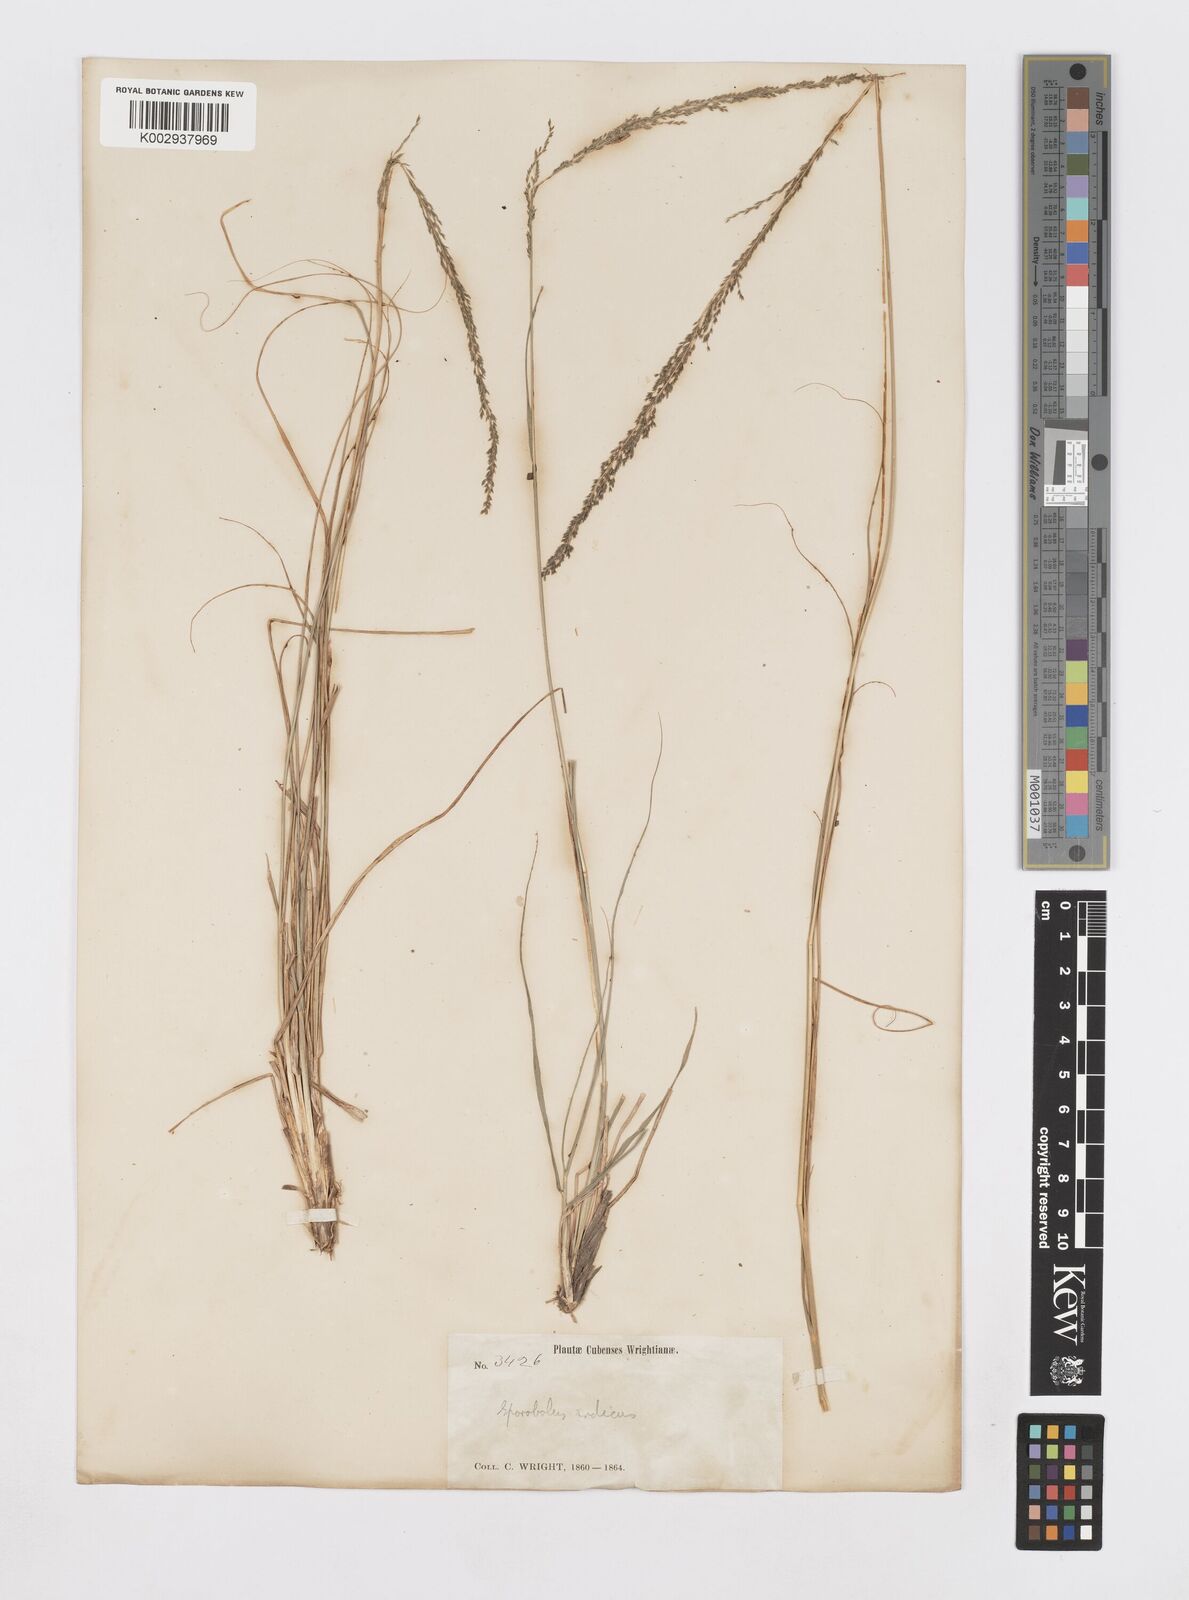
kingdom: Plantae
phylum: Tracheophyta
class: Liliopsida
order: Poales
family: Poaceae
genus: Sporobolus
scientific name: Sporobolus indicus
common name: Smut grass
